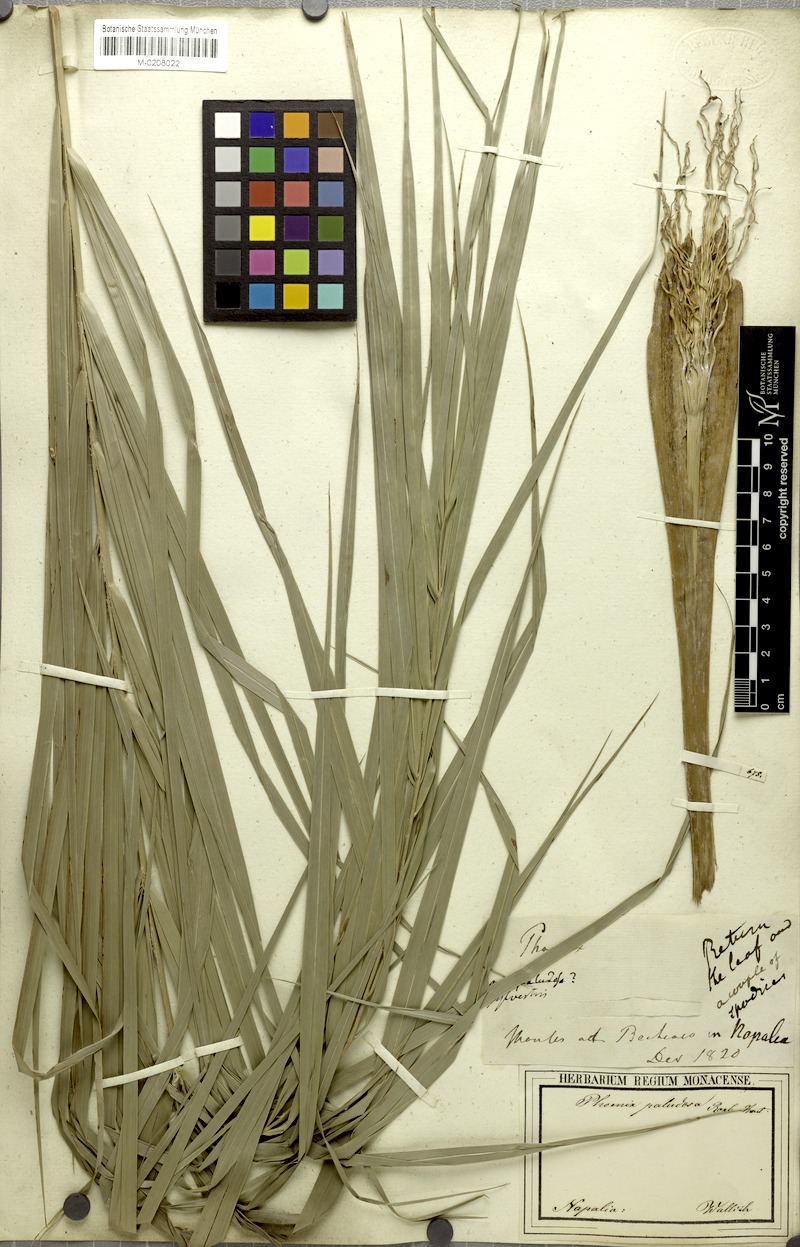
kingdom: Plantae
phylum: Tracheophyta
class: Liliopsida
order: Arecales
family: Arecaceae
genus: Phoenix
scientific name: Phoenix paludosa
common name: Mangrove date palm
